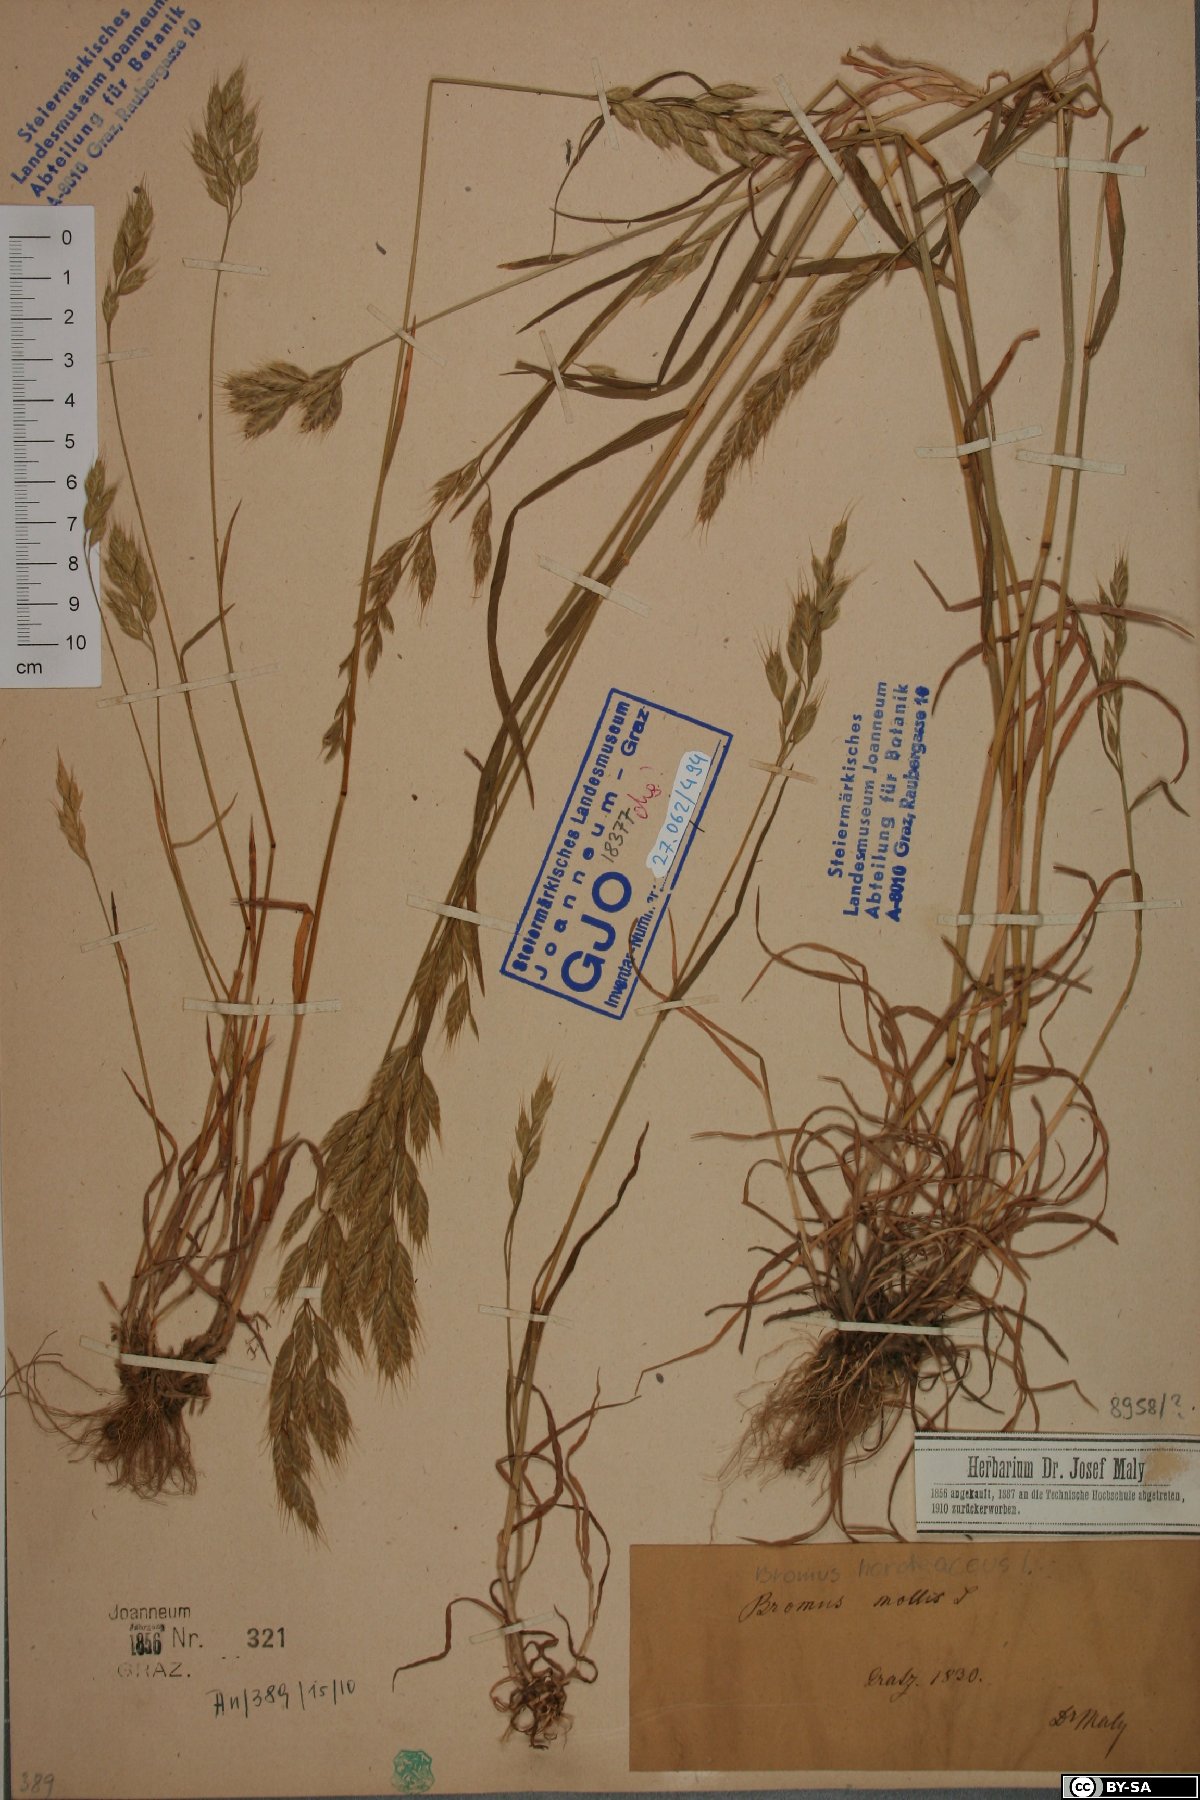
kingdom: Plantae
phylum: Tracheophyta
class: Liliopsida
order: Poales
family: Poaceae
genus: Bromus
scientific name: Bromus hordeaceus
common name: Soft brome
